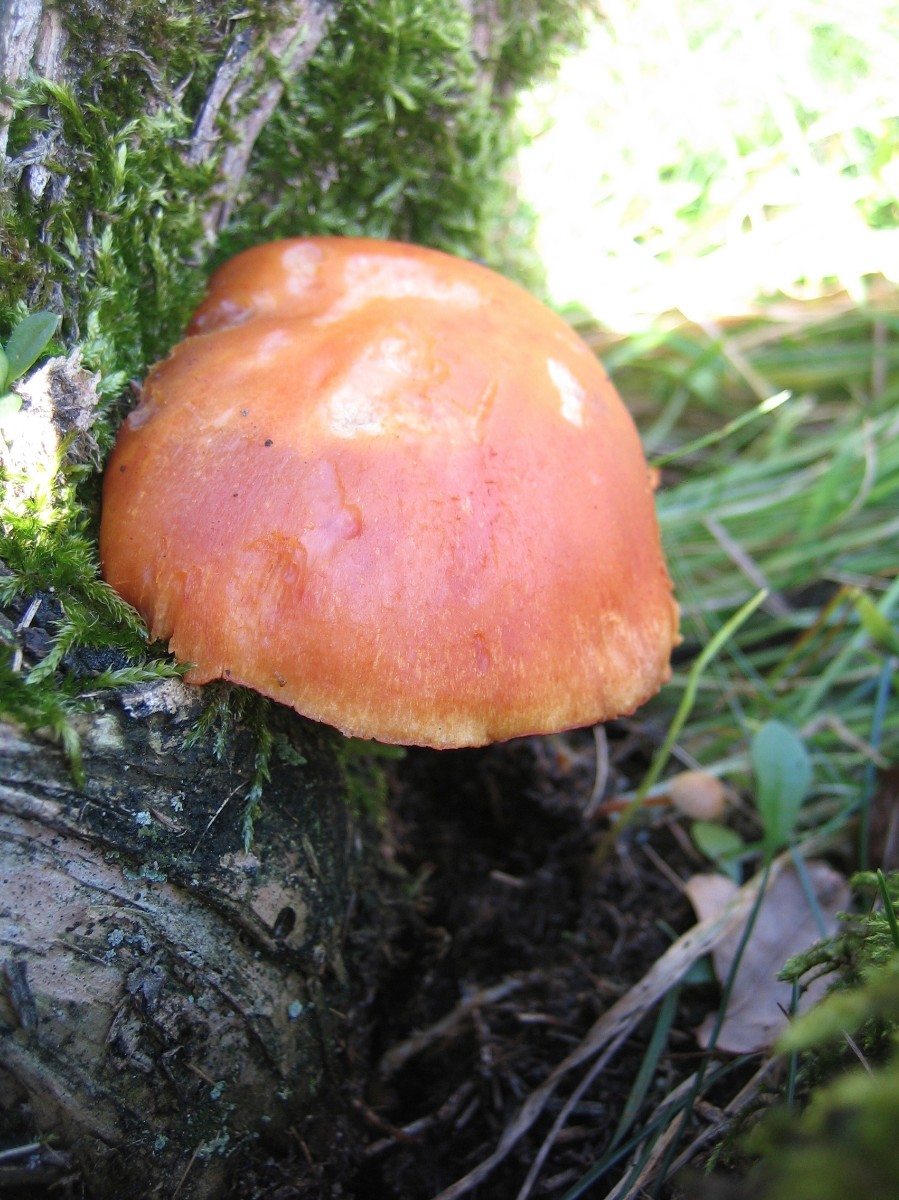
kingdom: Fungi
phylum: Basidiomycota
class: Agaricomycetes
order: Agaricales
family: Hymenogastraceae
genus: Gymnopilus
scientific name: Gymnopilus penetrans
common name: plettet flammehat
